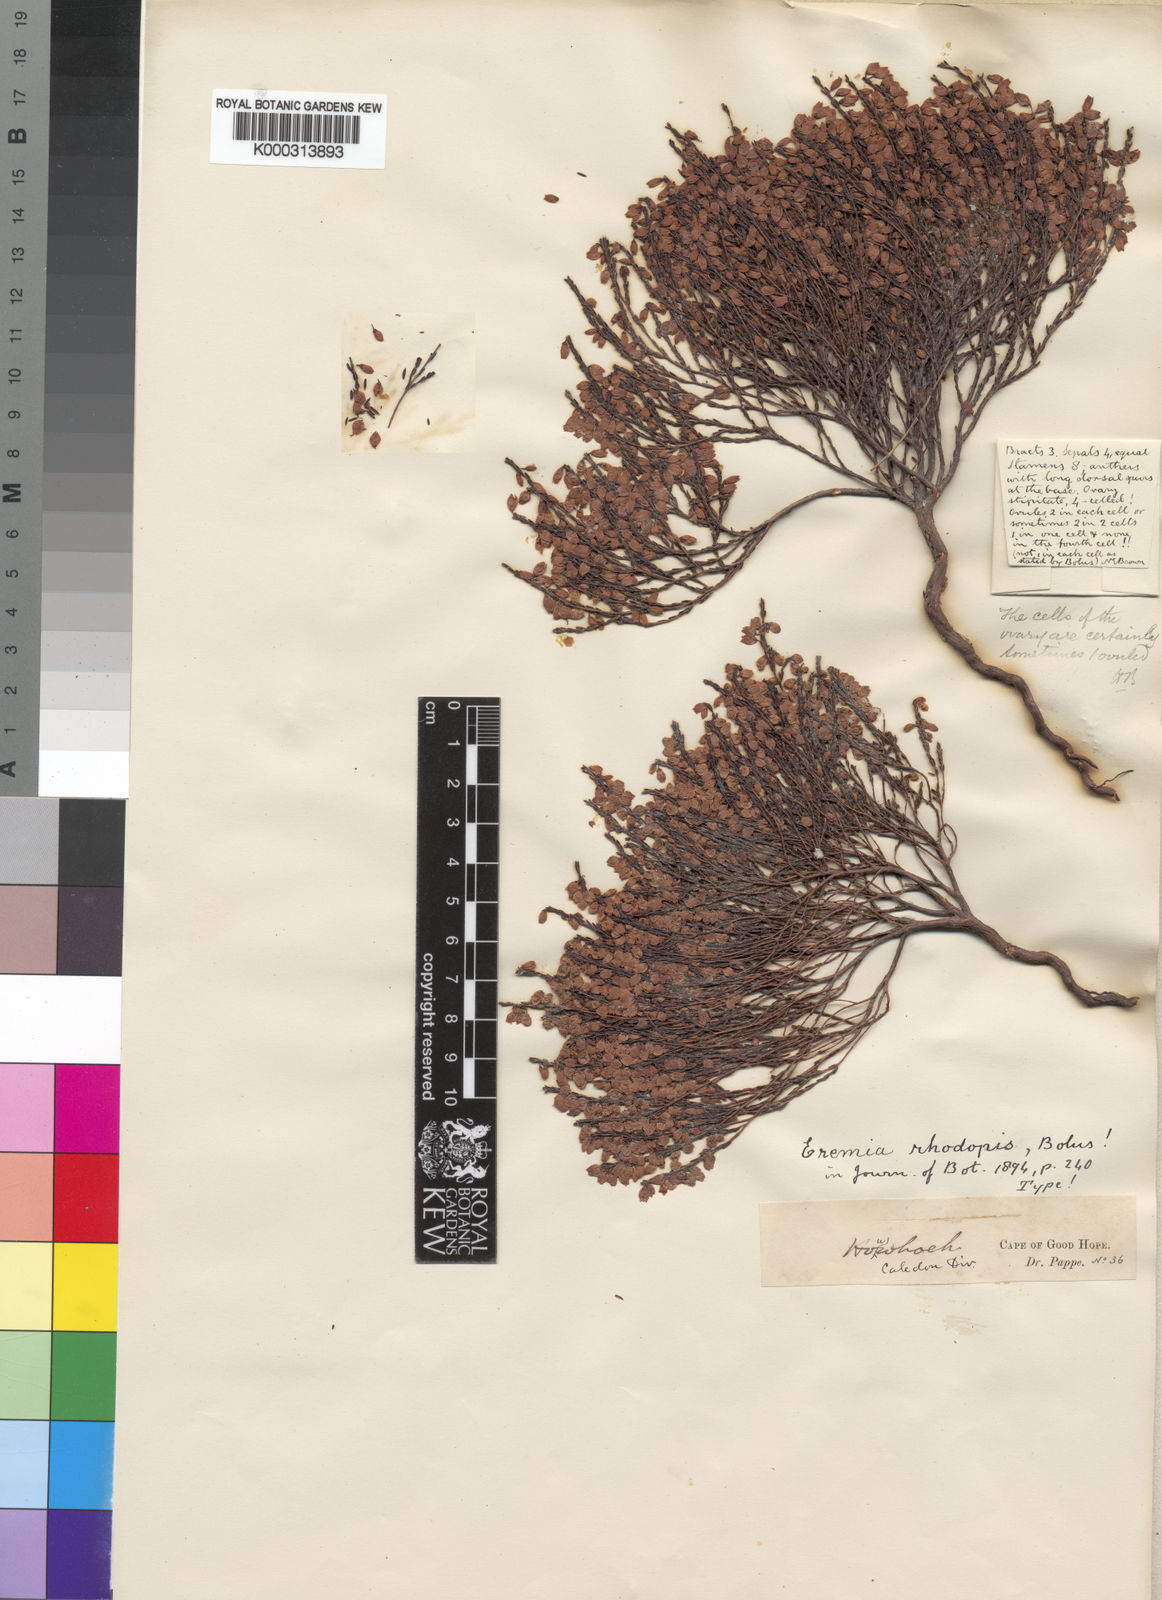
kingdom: Plantae
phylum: Tracheophyta
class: Magnoliopsida
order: Ericales
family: Ericaceae
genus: Erica
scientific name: Erica rhodopis
